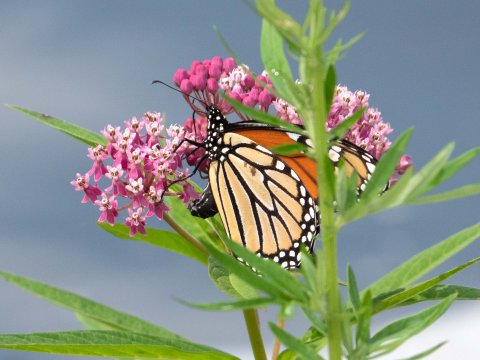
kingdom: Animalia
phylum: Arthropoda
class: Insecta
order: Lepidoptera
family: Nymphalidae
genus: Danaus
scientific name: Danaus plexippus
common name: Monarch
